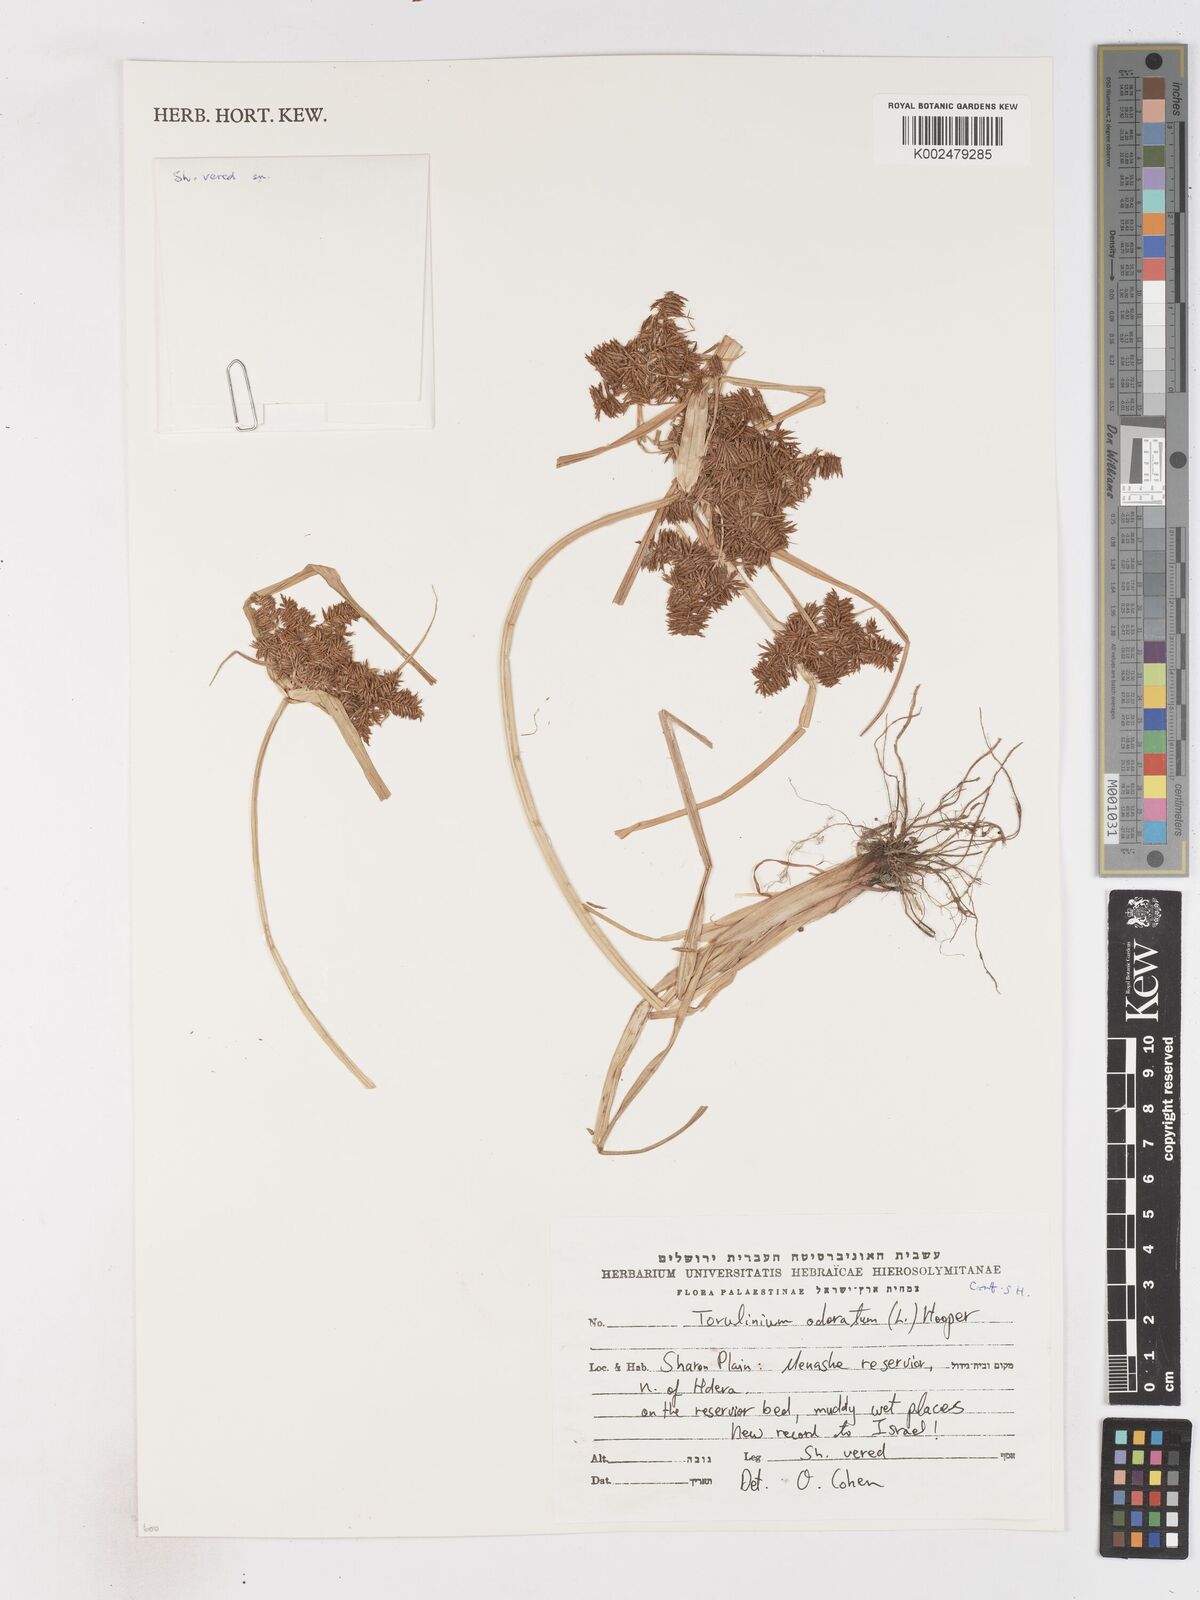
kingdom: Plantae
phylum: Tracheophyta
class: Liliopsida
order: Poales
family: Cyperaceae
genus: Cyperus
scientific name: Cyperus odoratus
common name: Fragrant flatsedge
